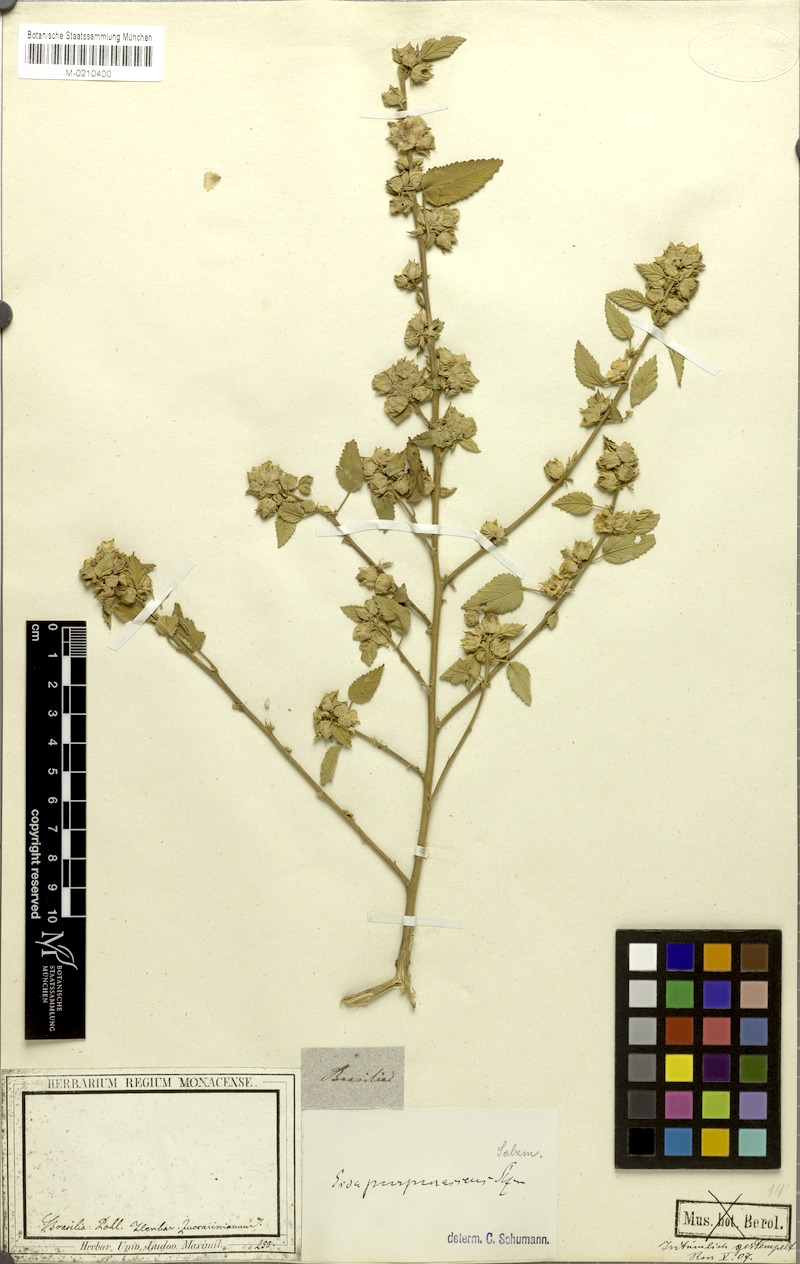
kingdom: Plantae
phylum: Tracheophyta
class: Magnoliopsida
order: Malvales
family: Malvaceae
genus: Bakeridesia
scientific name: Bakeridesia esculenta
